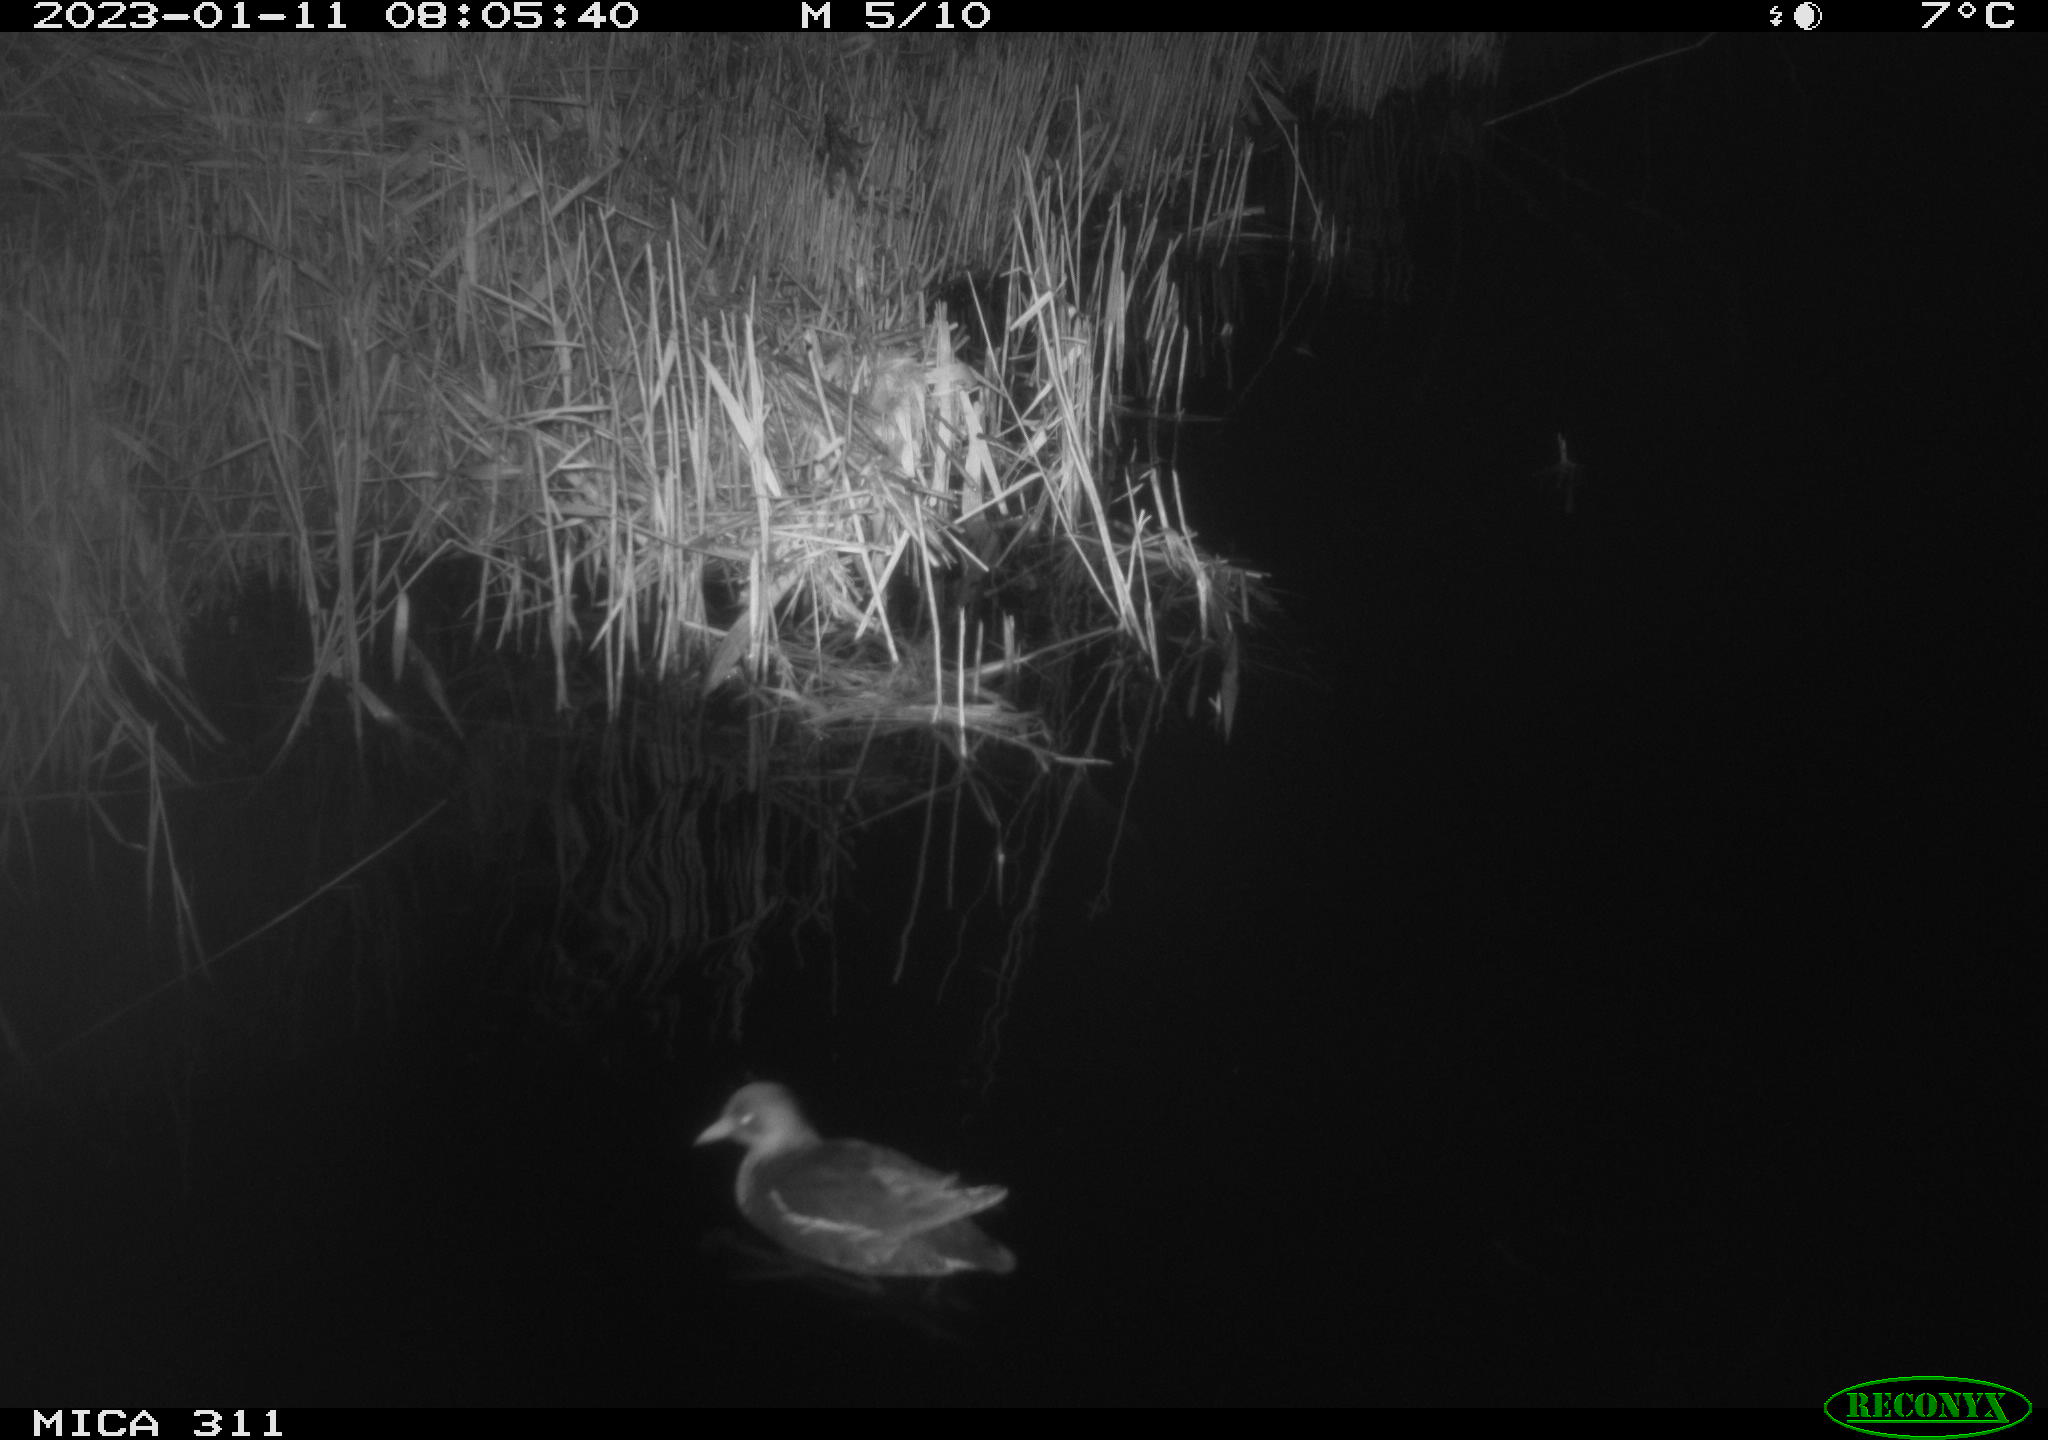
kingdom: Animalia
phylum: Chordata
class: Aves
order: Gruiformes
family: Rallidae
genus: Gallinula
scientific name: Gallinula chloropus
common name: Common moorhen
